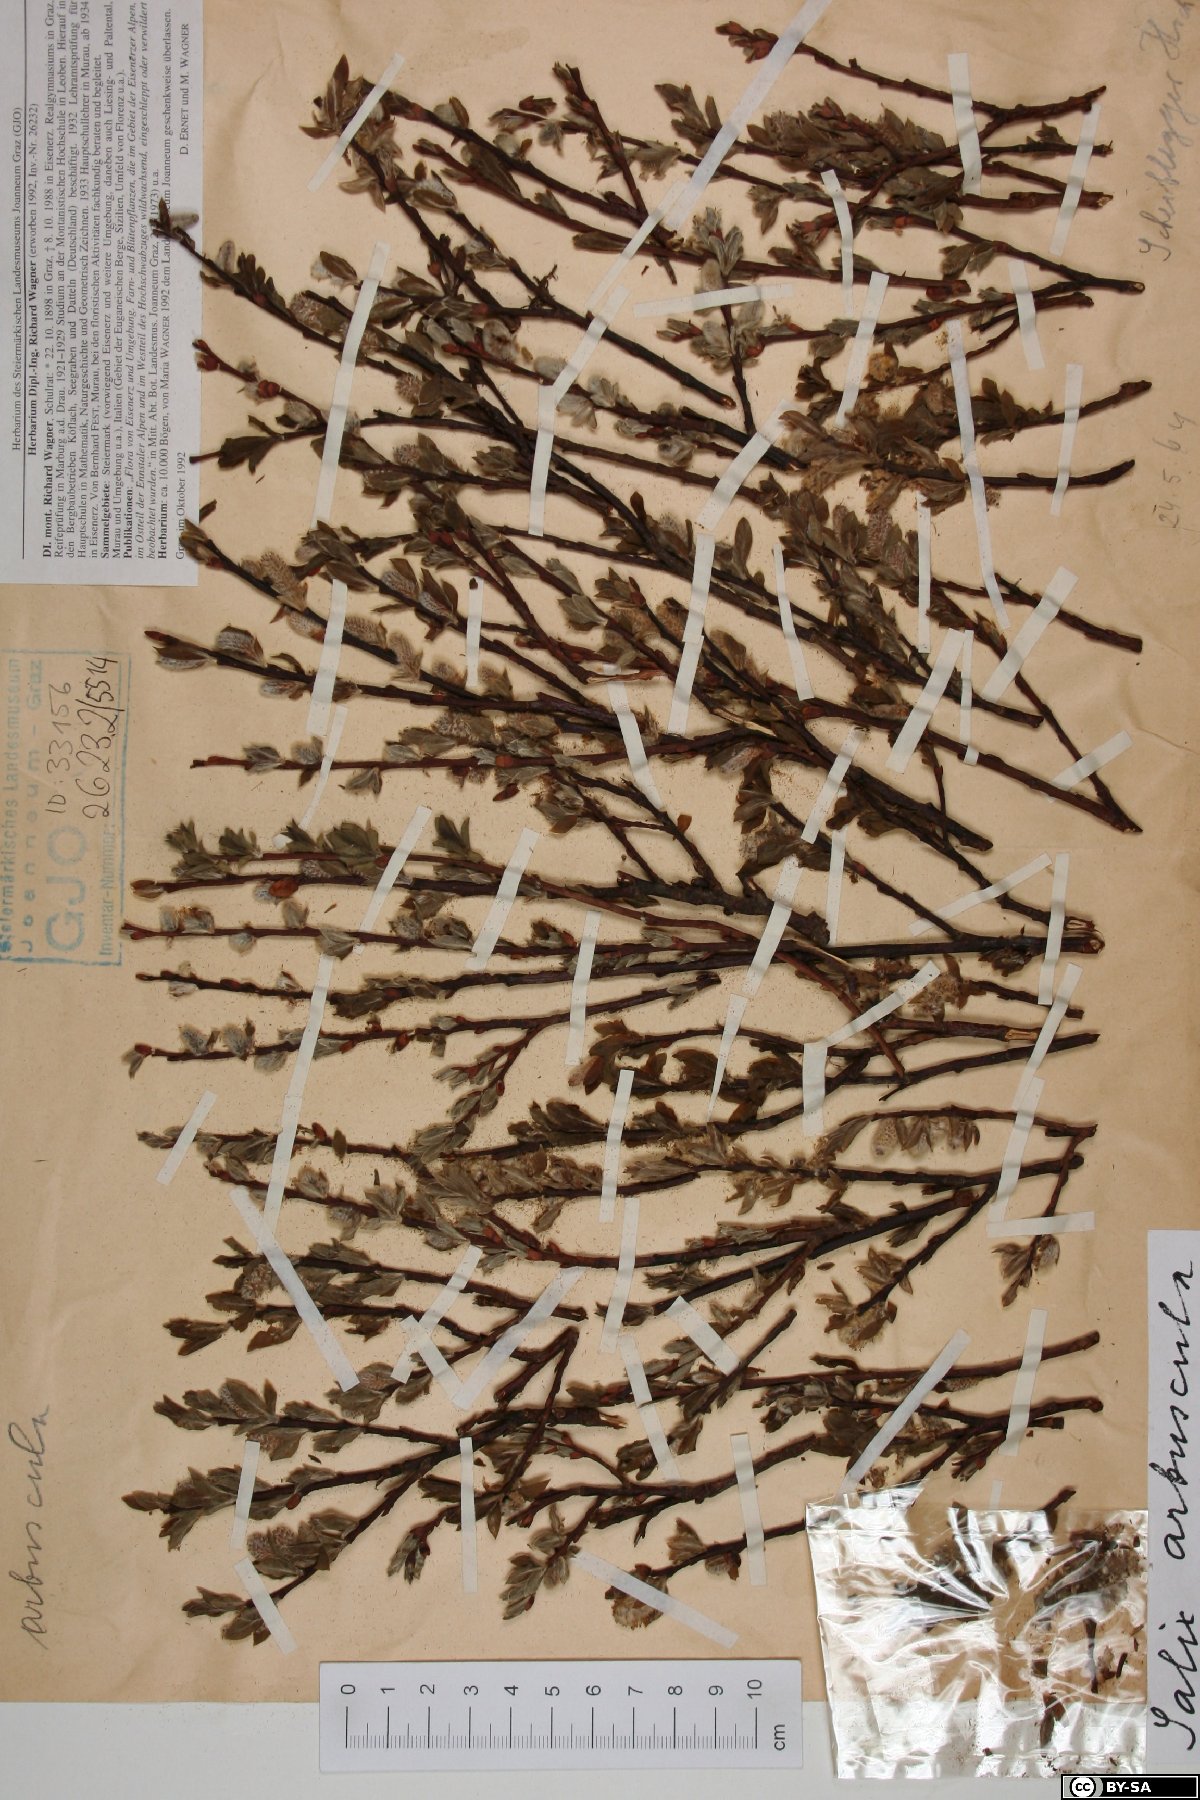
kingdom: Plantae
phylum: Tracheophyta
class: Magnoliopsida
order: Malpighiales
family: Salicaceae
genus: Salix
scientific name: Salix arbuscula
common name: Mountain willow
